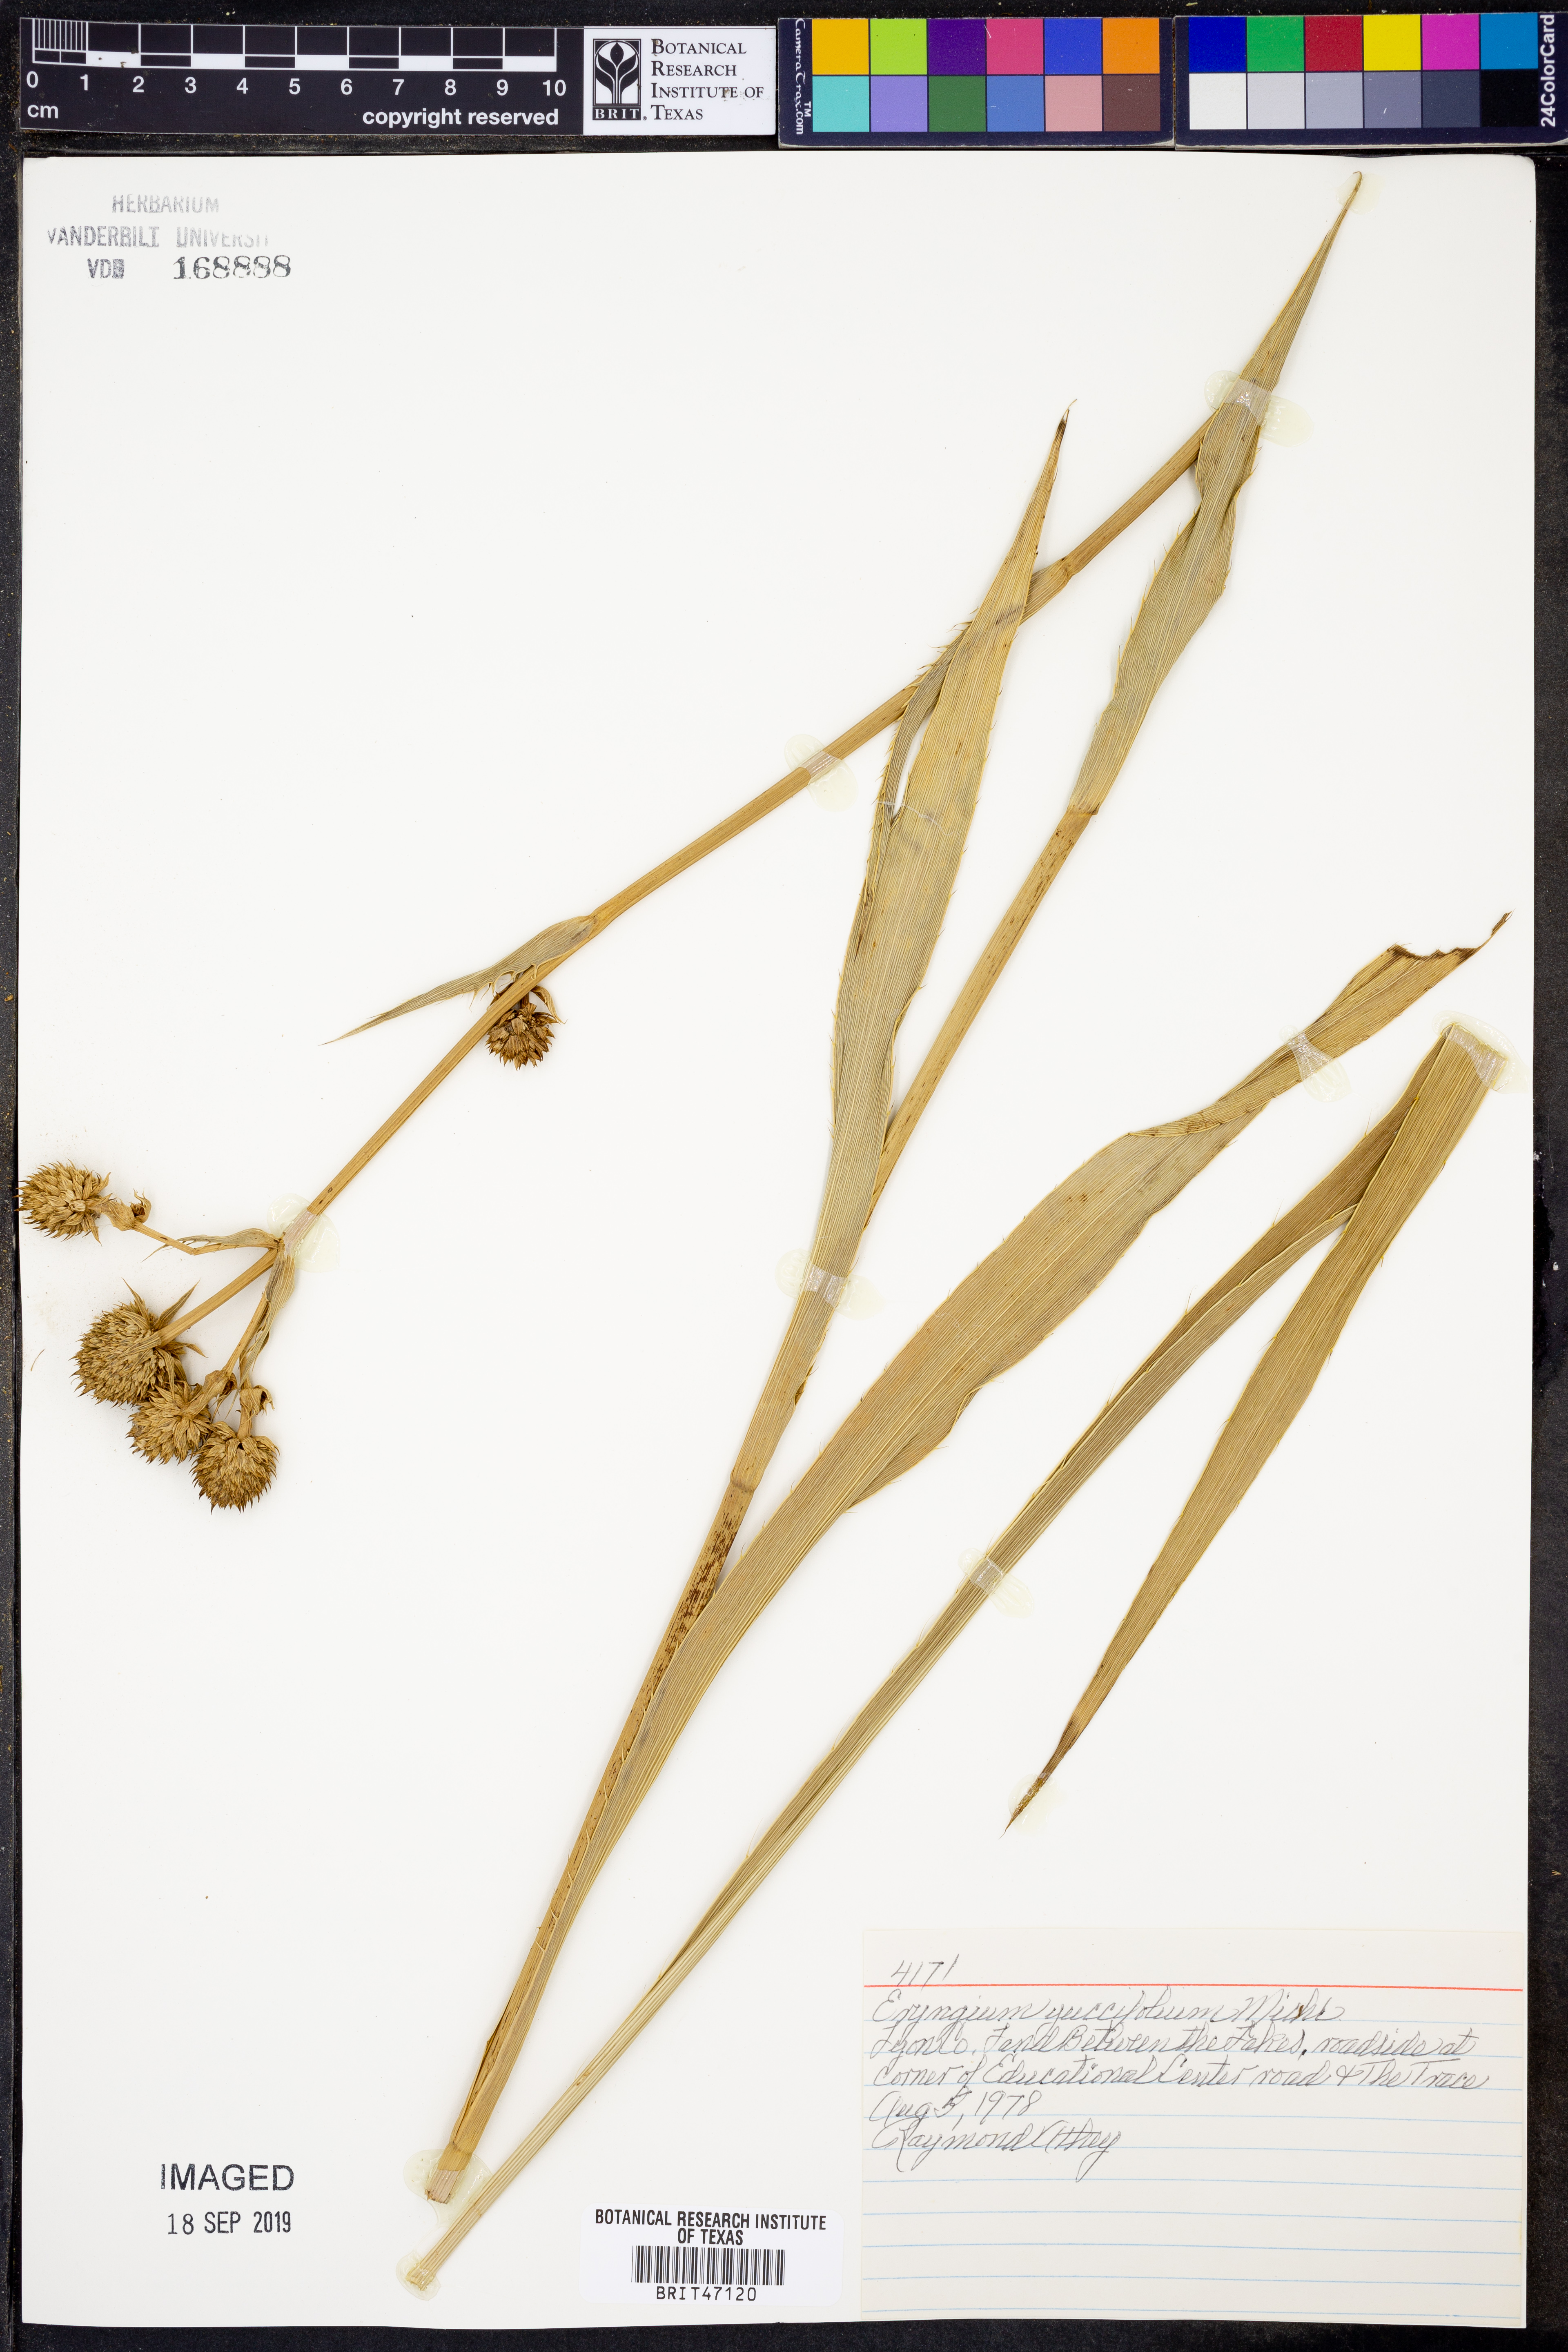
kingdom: Plantae
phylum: Tracheophyta
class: Magnoliopsida
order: Apiales
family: Apiaceae
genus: Eryngium
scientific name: Eryngium yuccifolium
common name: Button eryngo
